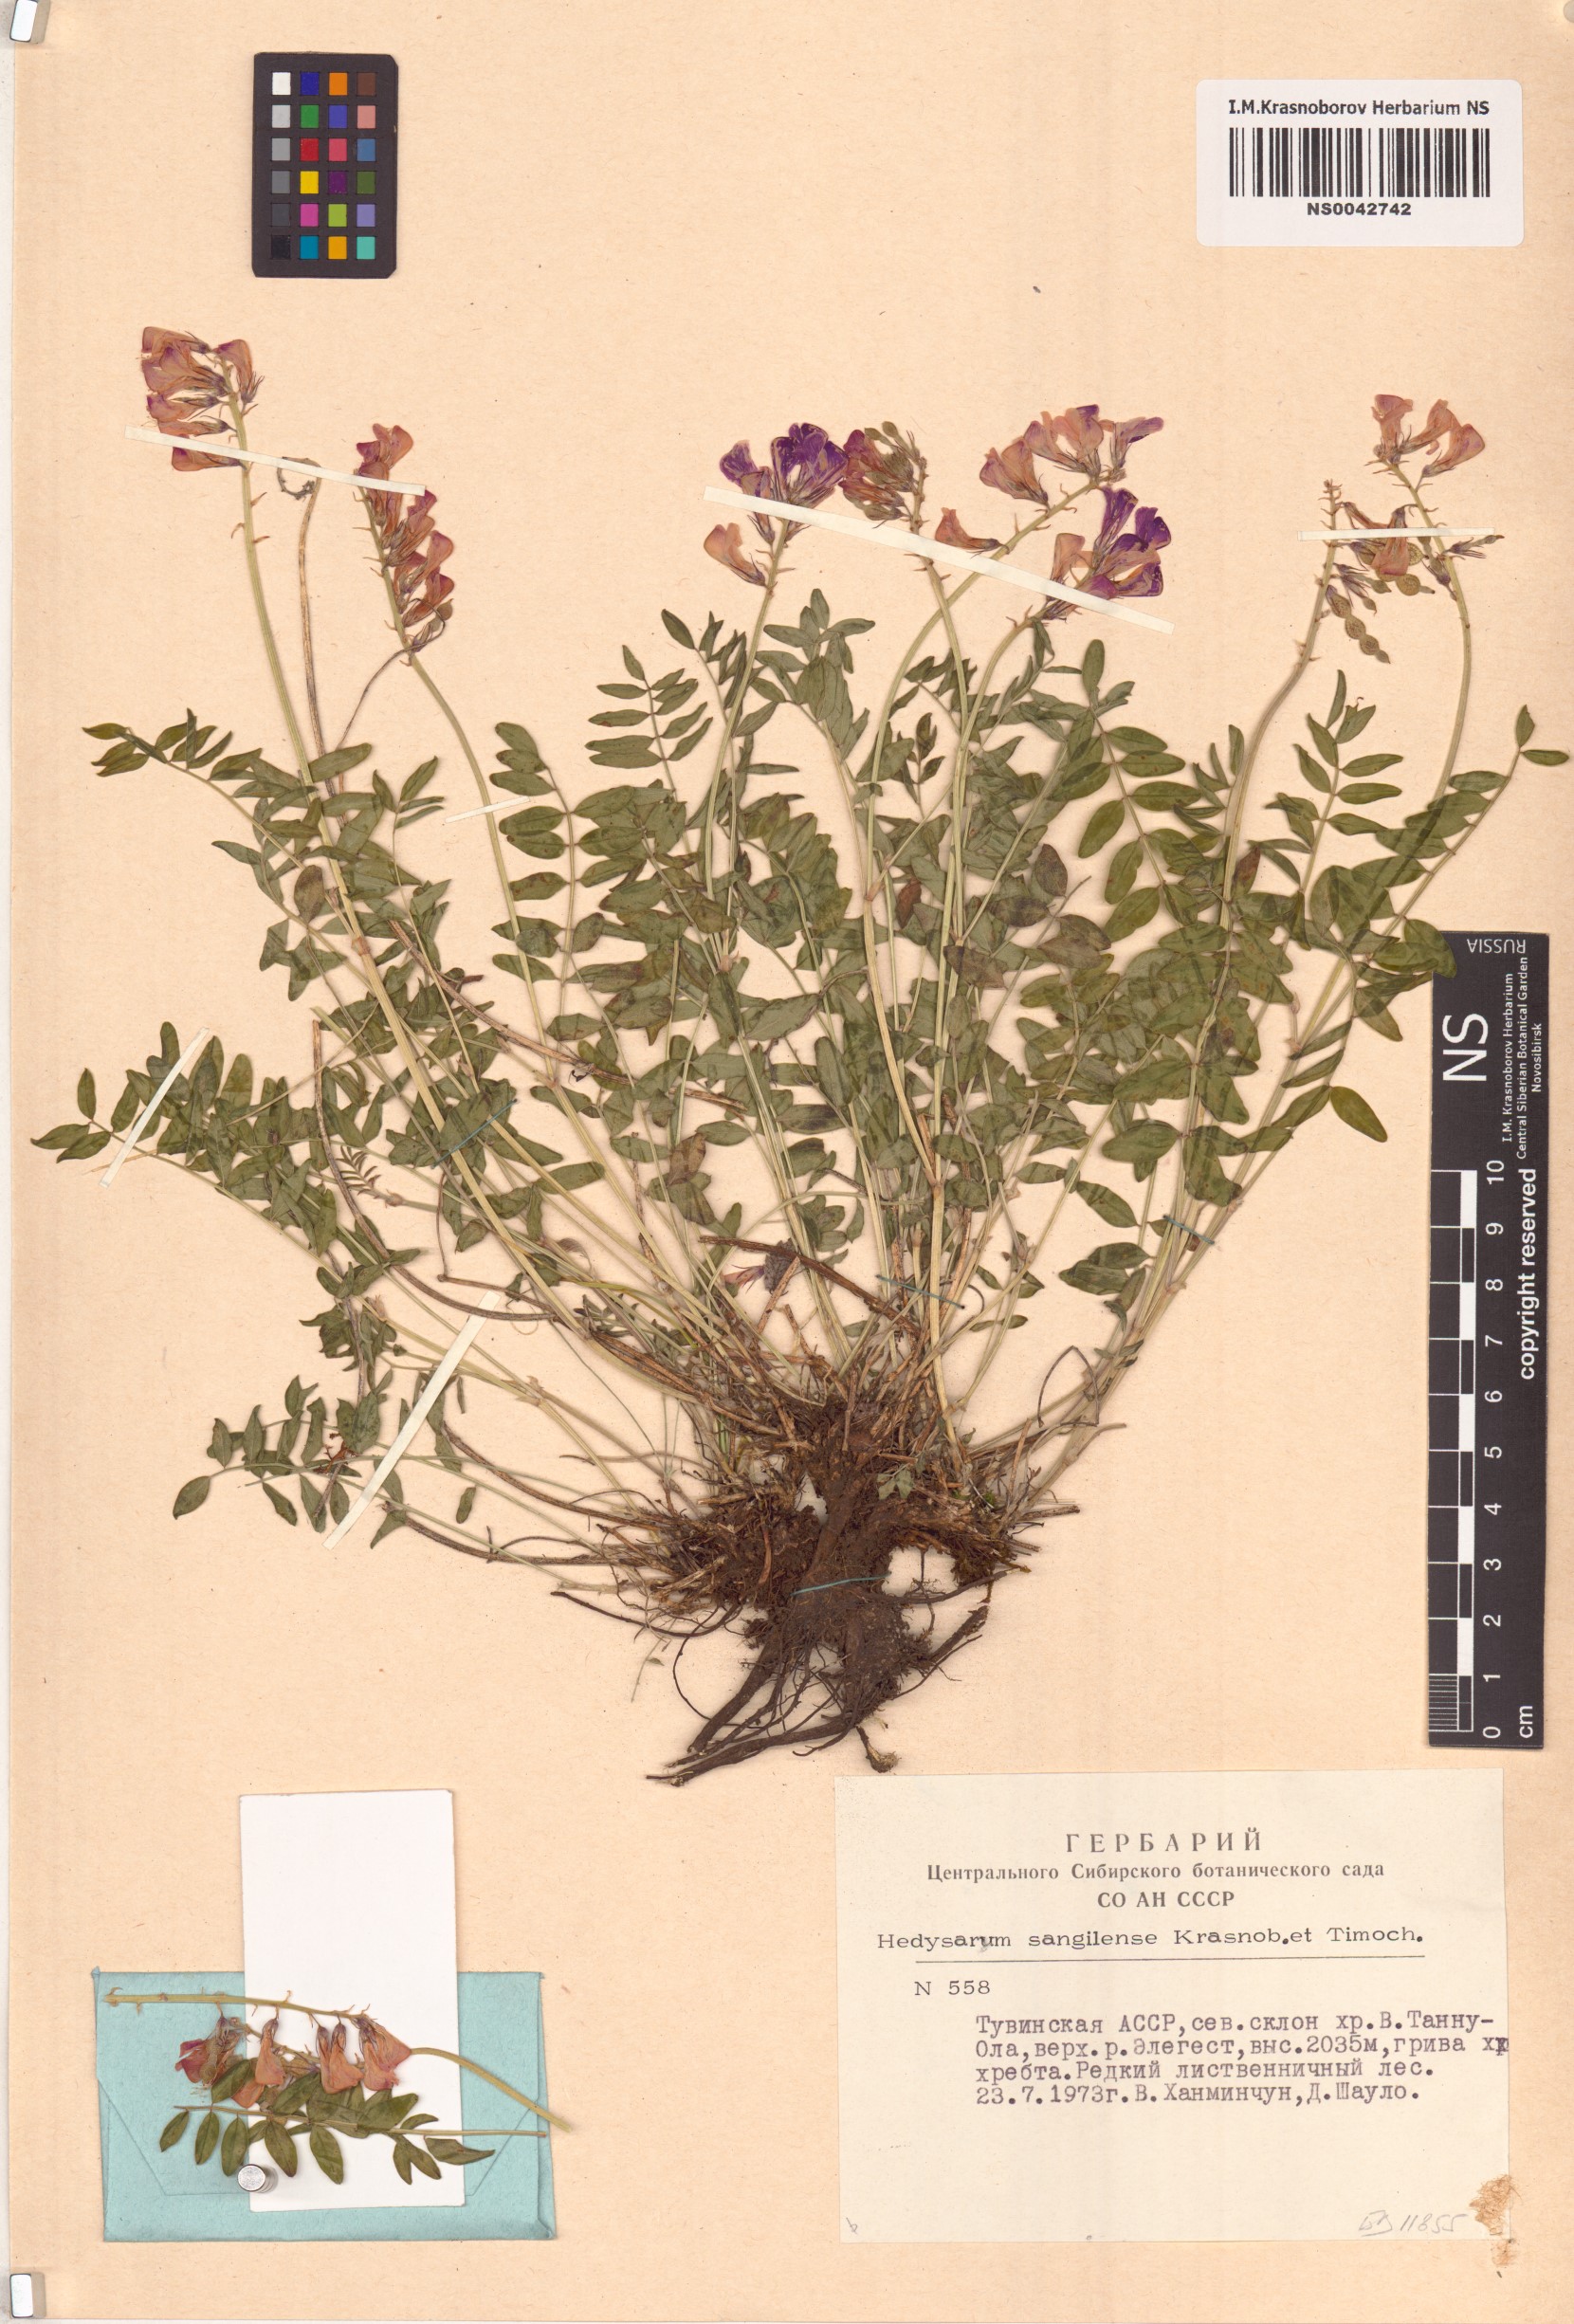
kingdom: Plantae
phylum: Tracheophyta
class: Magnoliopsida
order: Fabales
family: Fabaceae
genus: Hedysarum
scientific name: Hedysarum sangilense
